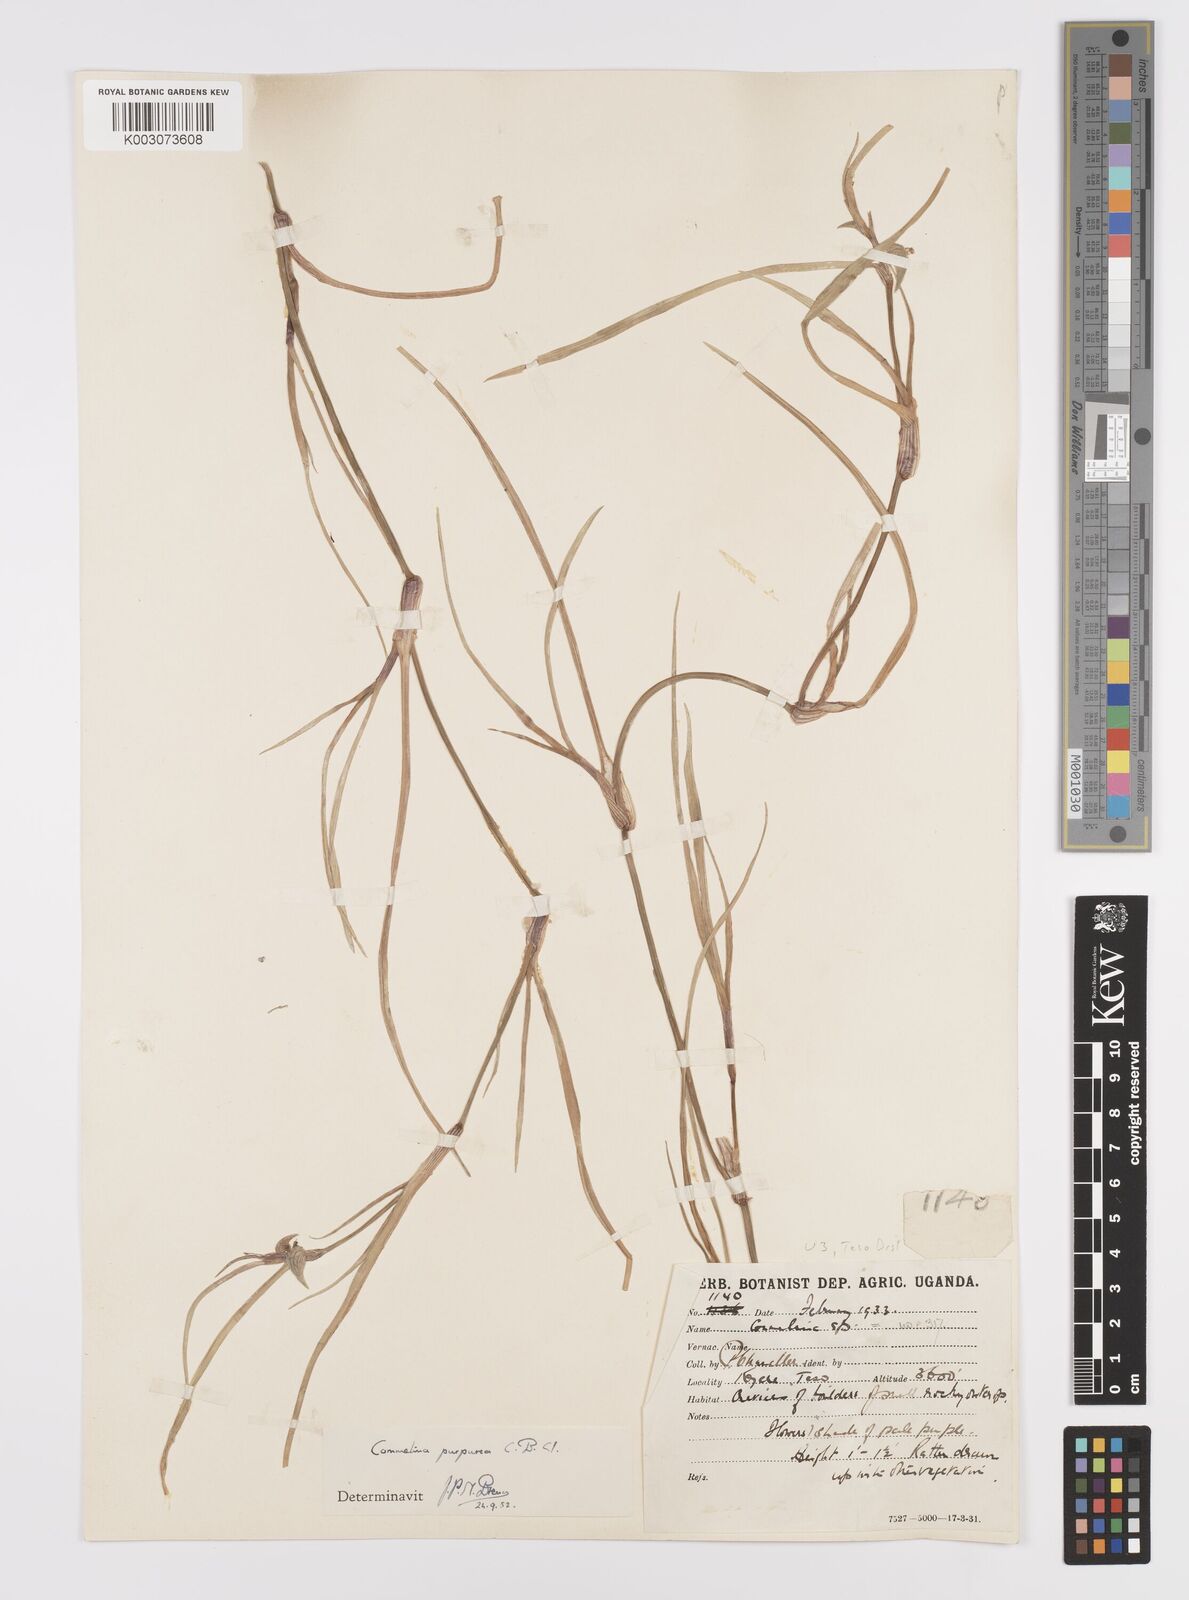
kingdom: Plantae
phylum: Tracheophyta
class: Liliopsida
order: Commelinales
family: Commelinaceae
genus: Commelina
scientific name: Commelina purpurea
